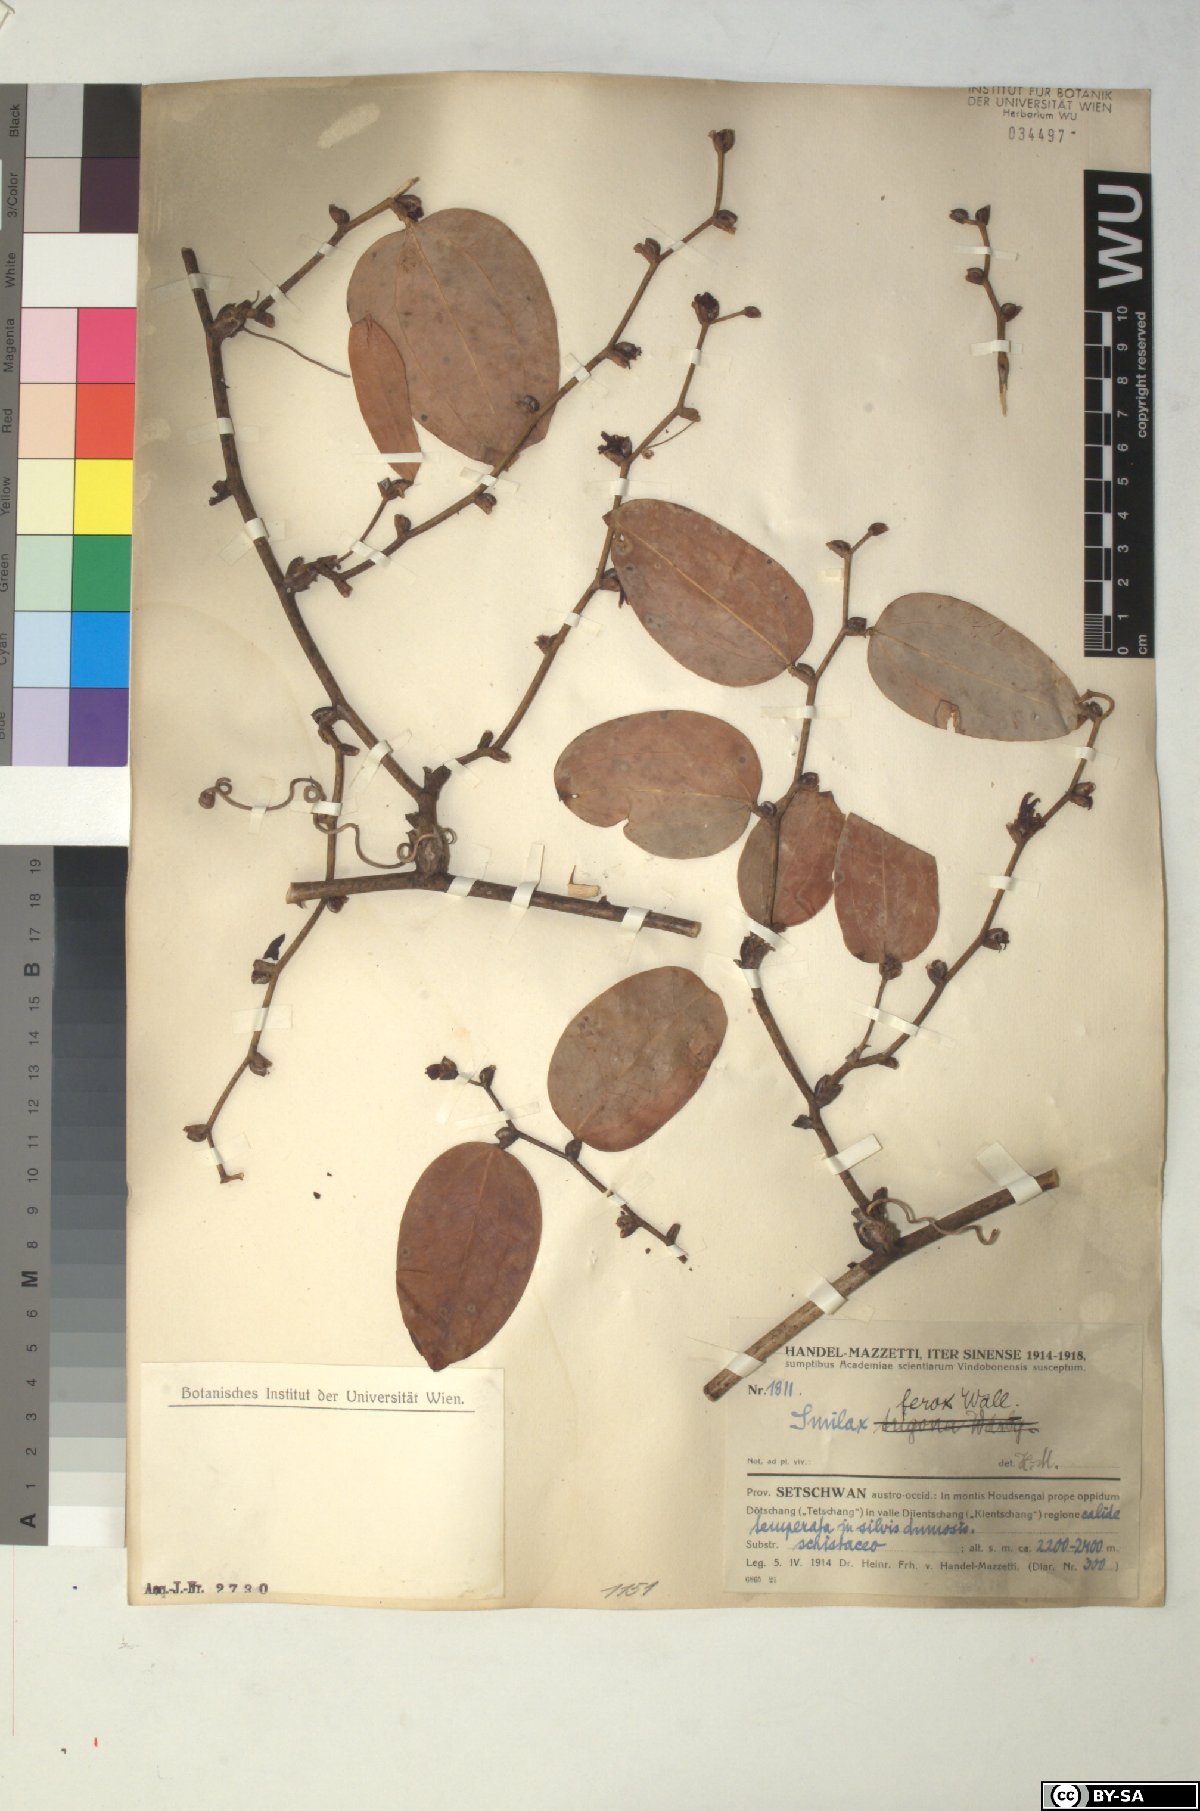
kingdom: Plantae
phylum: Tracheophyta
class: Liliopsida
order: Liliales
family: Smilacaceae
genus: Smilax
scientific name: Smilax ferox
